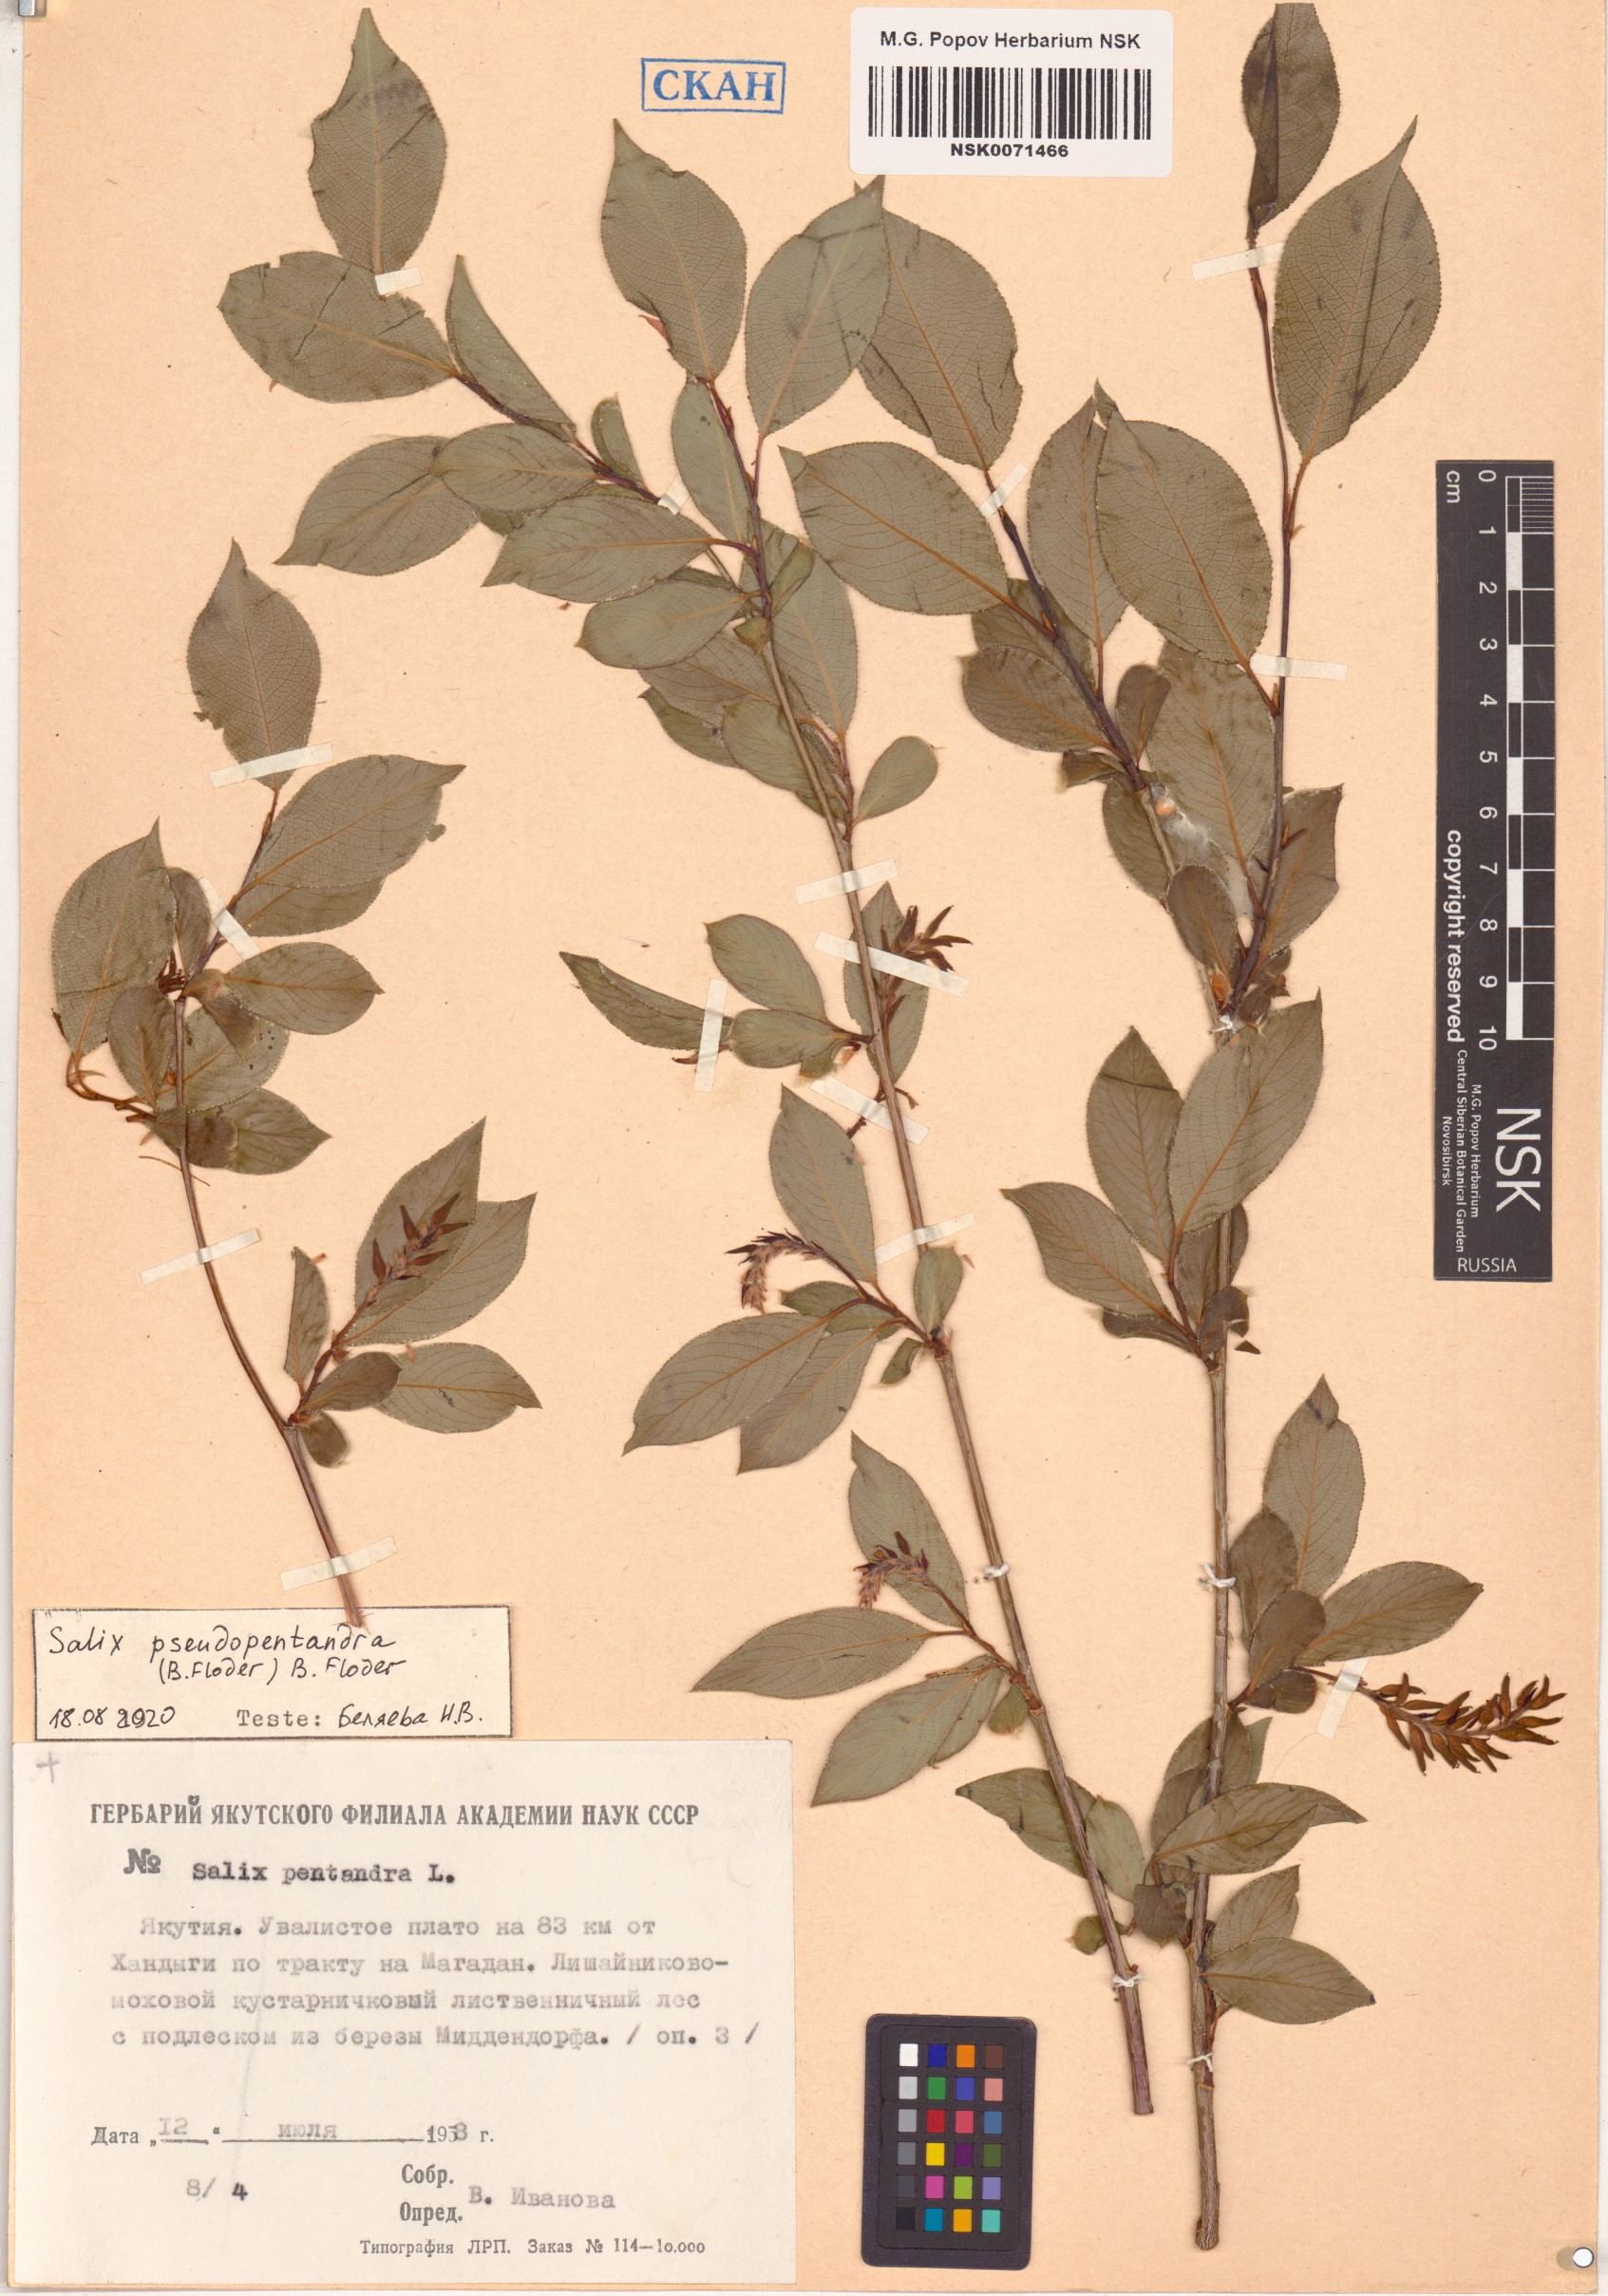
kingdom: Plantae
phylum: Tracheophyta
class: Magnoliopsida
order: Malpighiales
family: Salicaceae
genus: Salix
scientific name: Salix pseudopentandra
